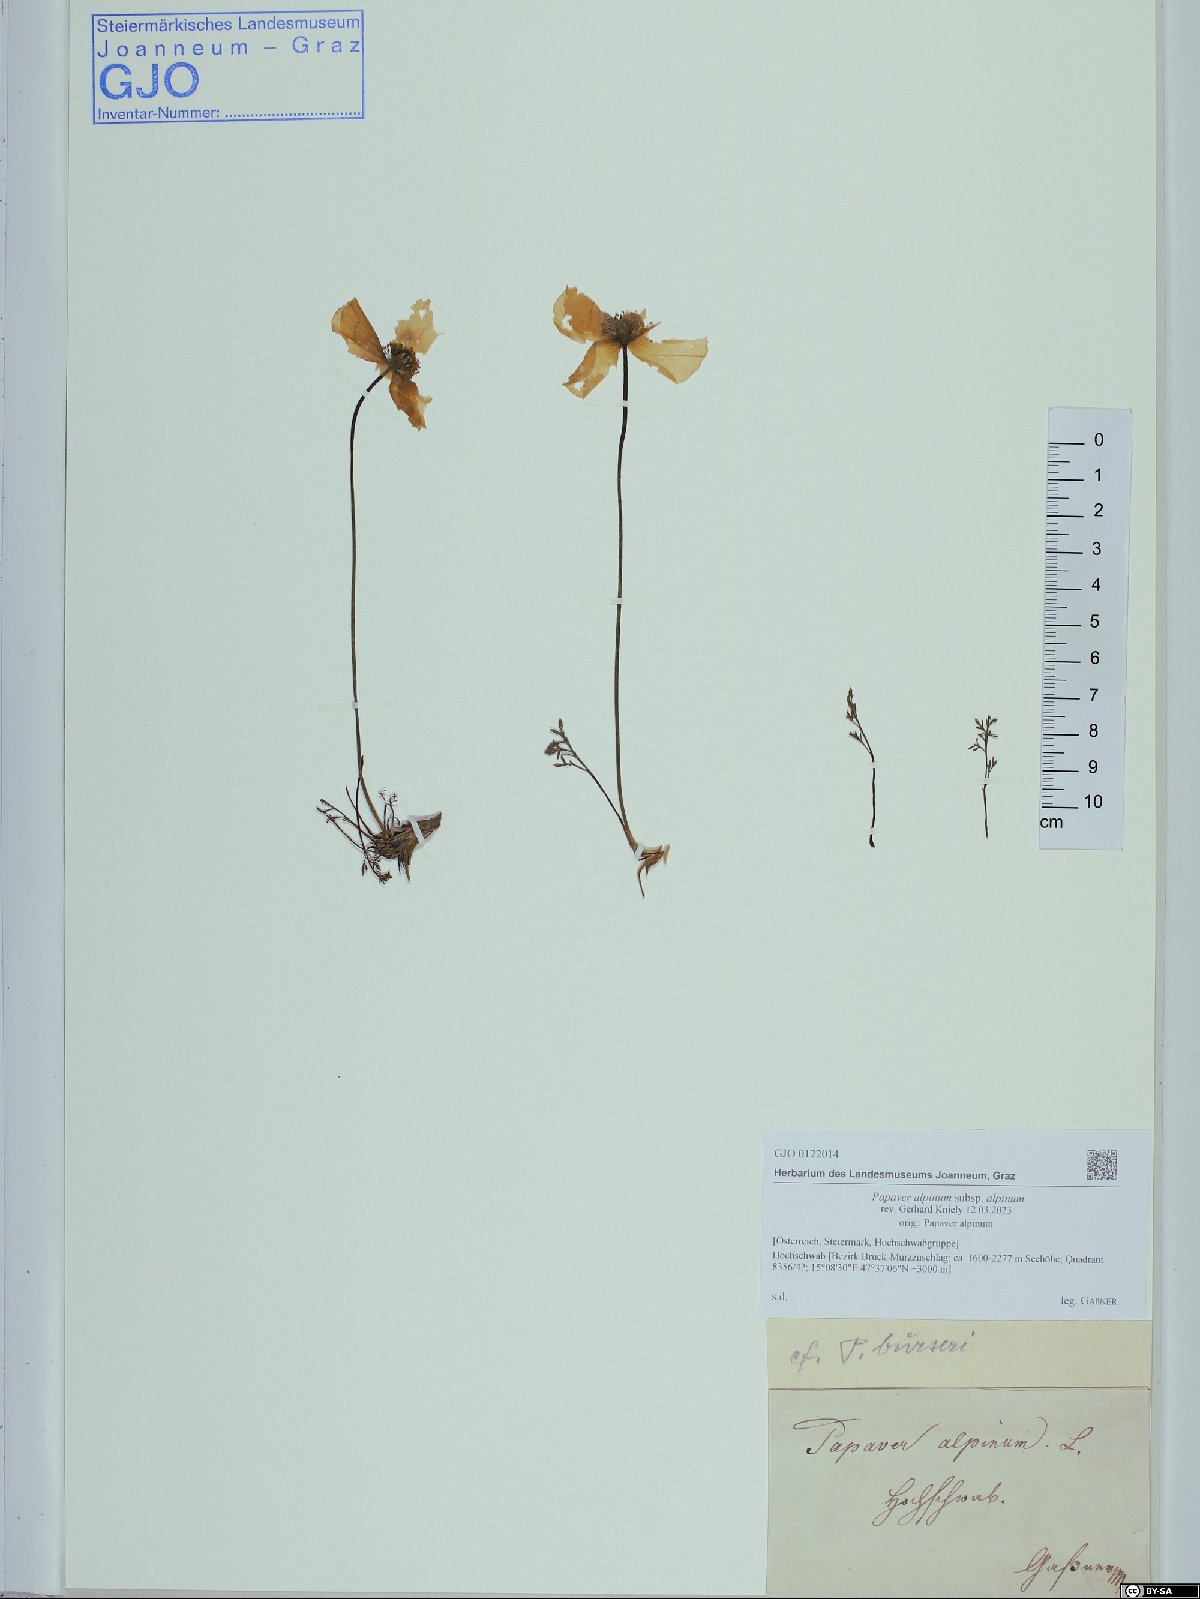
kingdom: Plantae
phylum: Tracheophyta
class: Magnoliopsida
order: Ranunculales
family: Papaveraceae
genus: Papaver
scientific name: Papaver alpinum
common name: Austrian poppy
